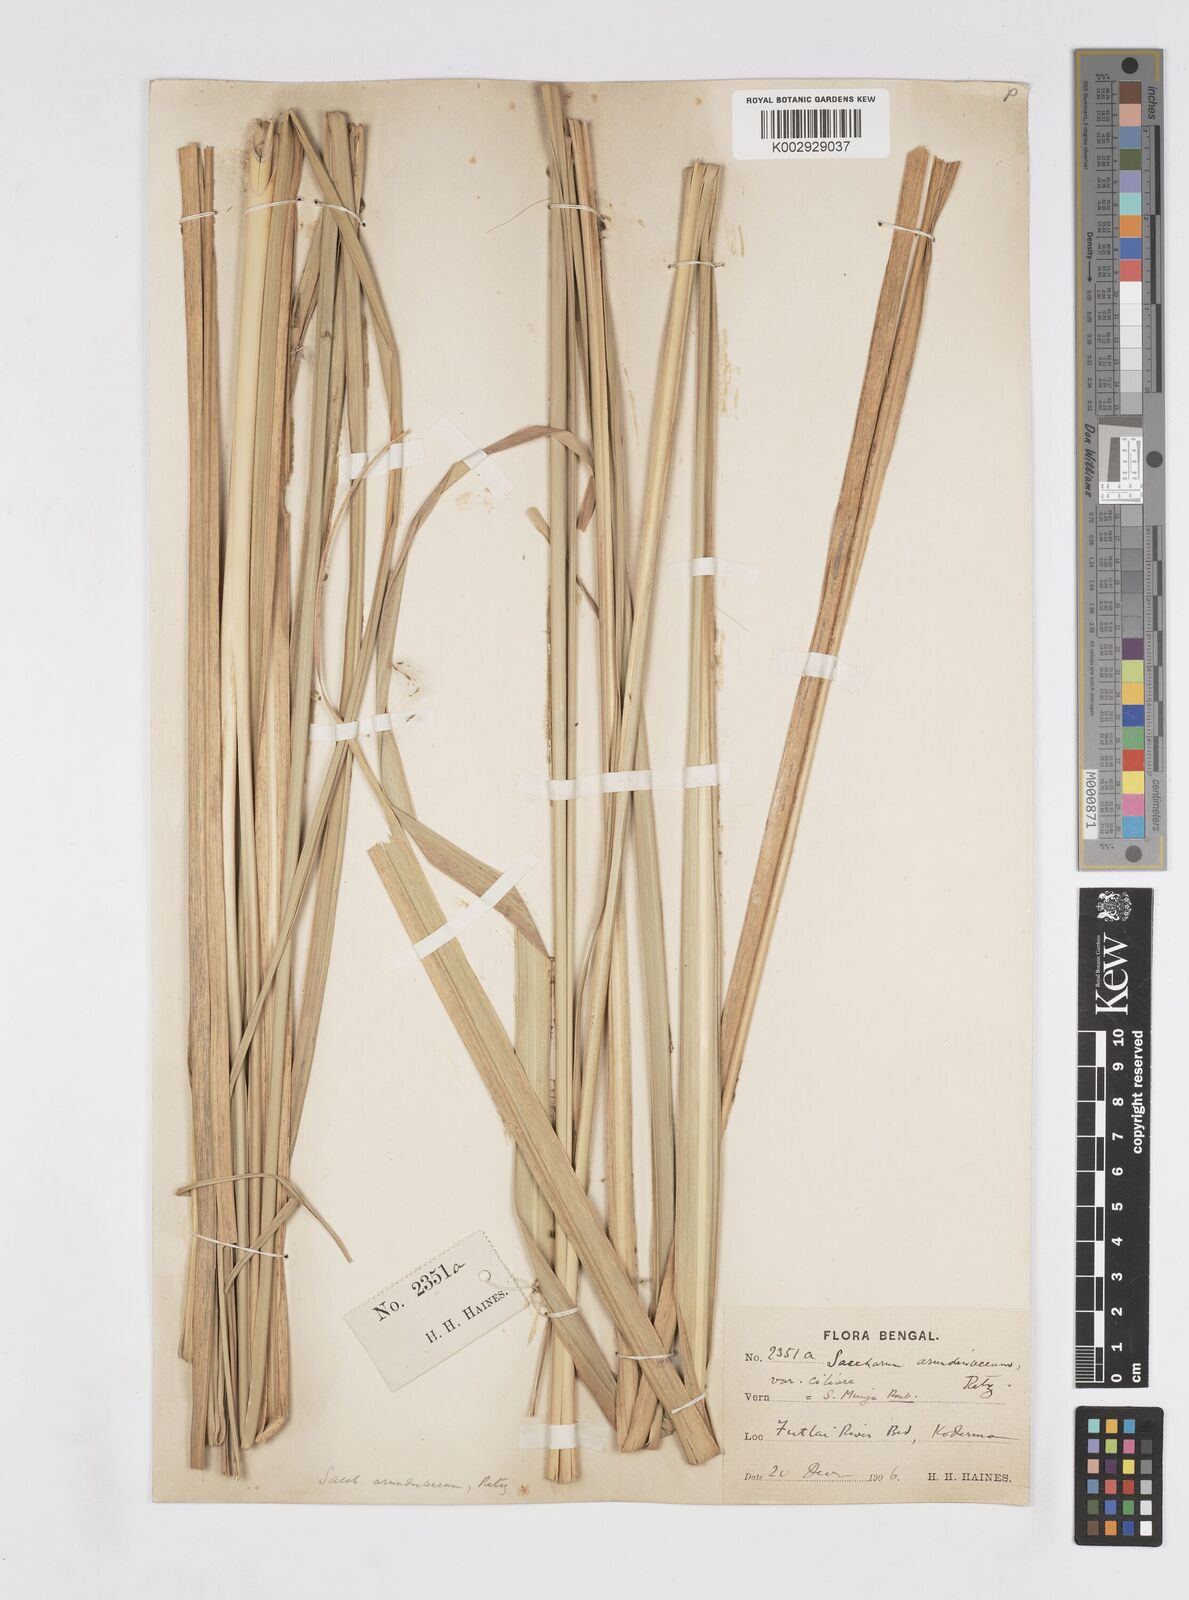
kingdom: Plantae
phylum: Tracheophyta
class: Liliopsida
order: Poales
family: Poaceae
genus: Tripidium
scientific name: Tripidium arundinaceum
